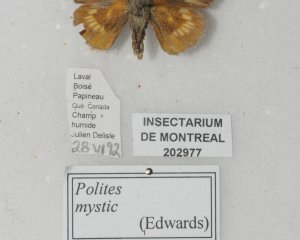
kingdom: Animalia
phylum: Arthropoda
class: Insecta
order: Lepidoptera
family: Hesperiidae
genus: Polites
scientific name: Polites
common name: Long Dash Skipper
